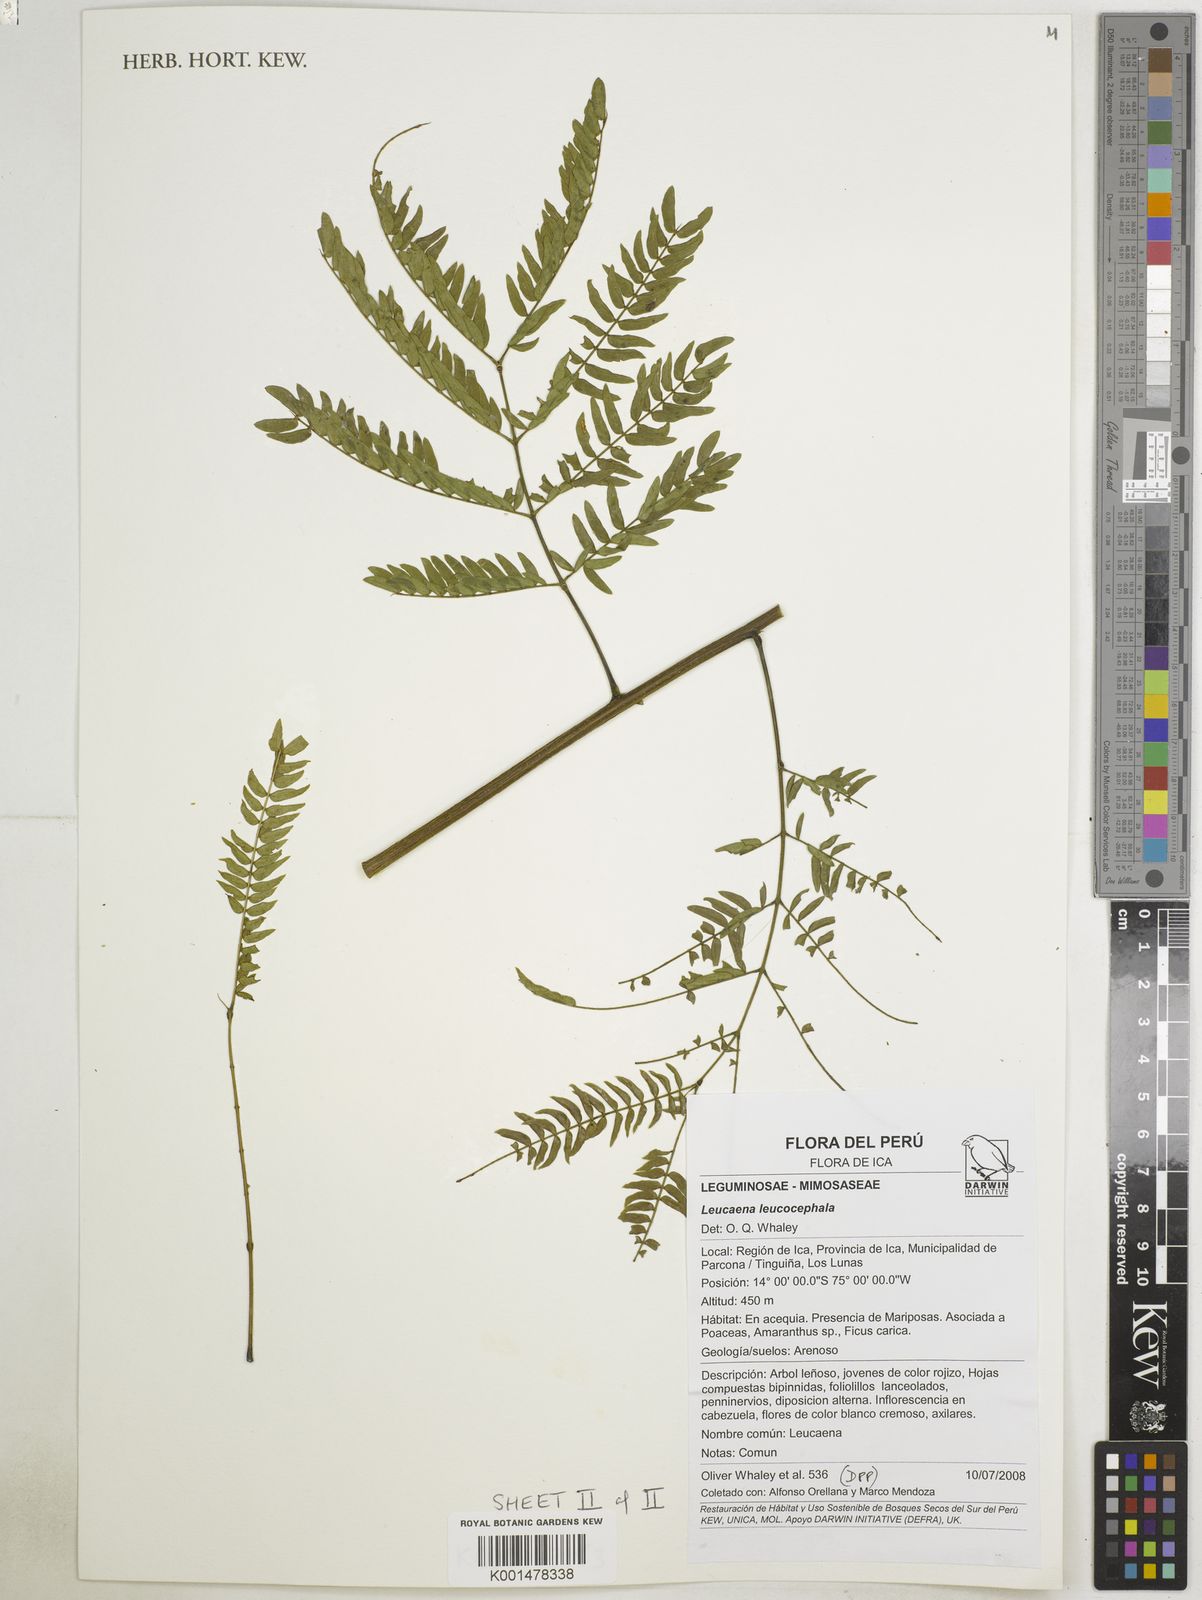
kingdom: Plantae
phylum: Tracheophyta
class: Magnoliopsida
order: Fabales
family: Fabaceae
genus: Leucaena
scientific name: Leucaena leucocephala
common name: White leadtree
